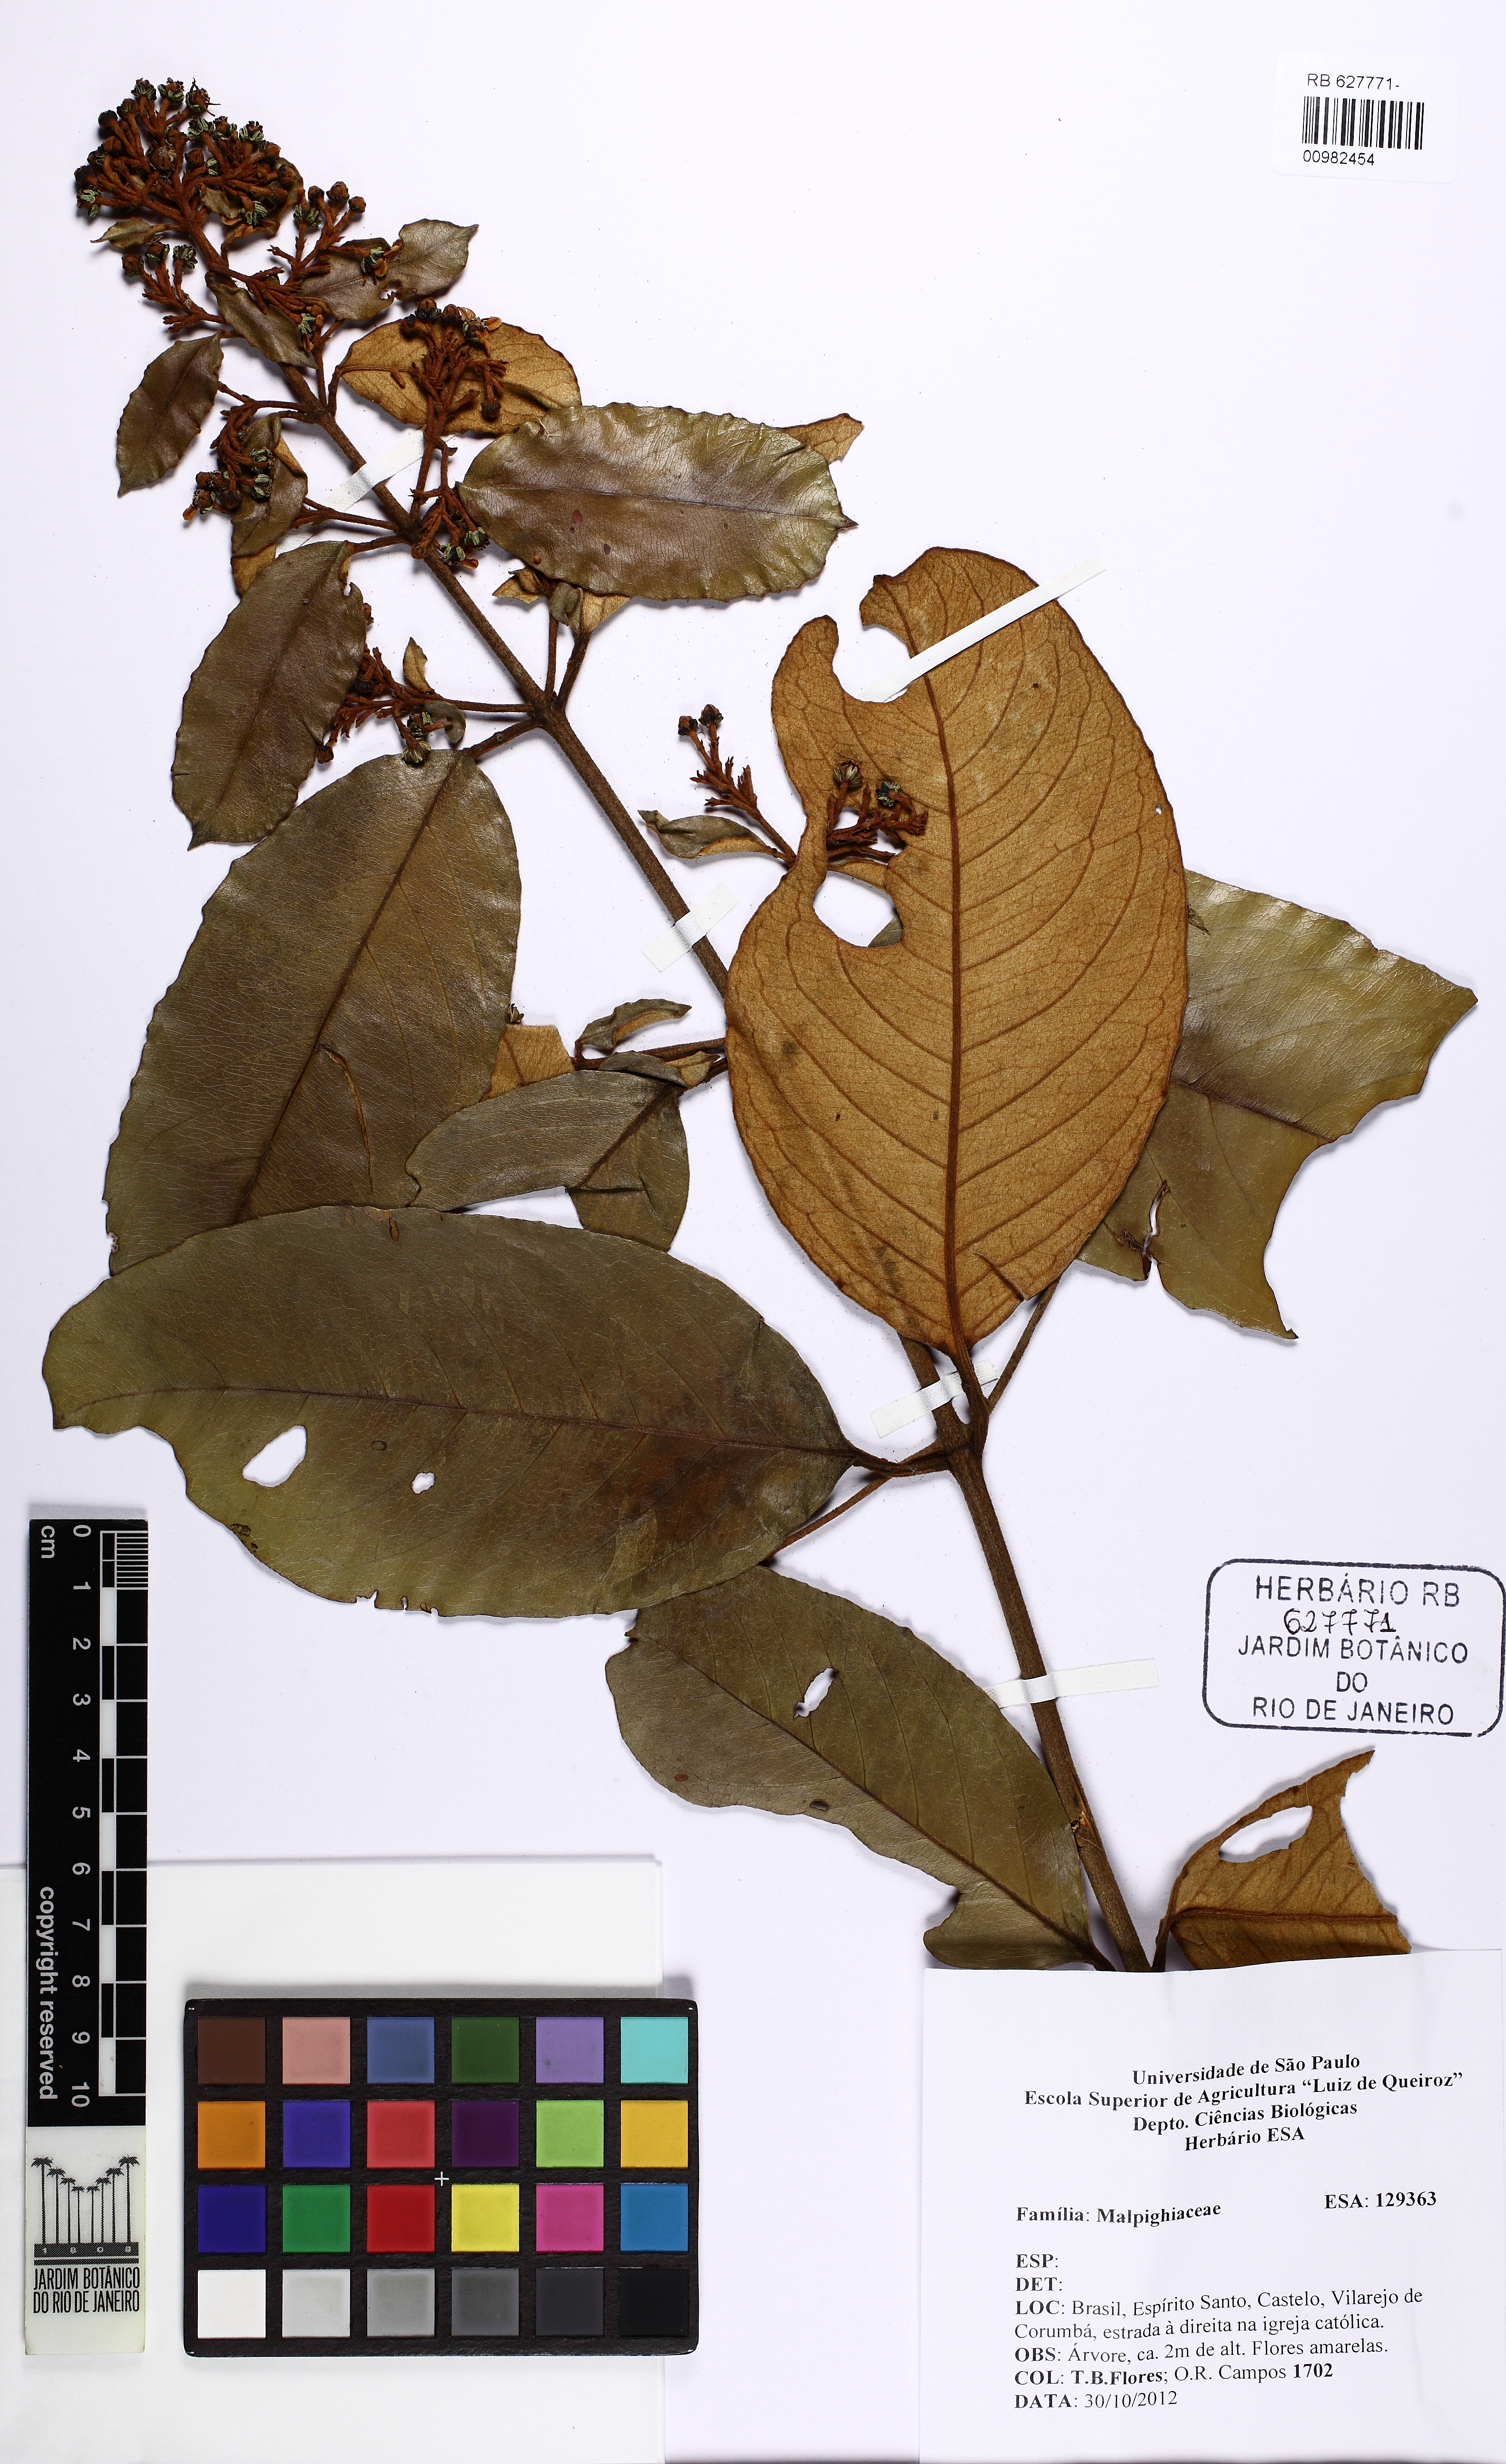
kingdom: Plantae
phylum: Tracheophyta
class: Magnoliopsida
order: Malpighiales
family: Malpighiaceae
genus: Heteropterys
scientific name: Heteropterys sericea
